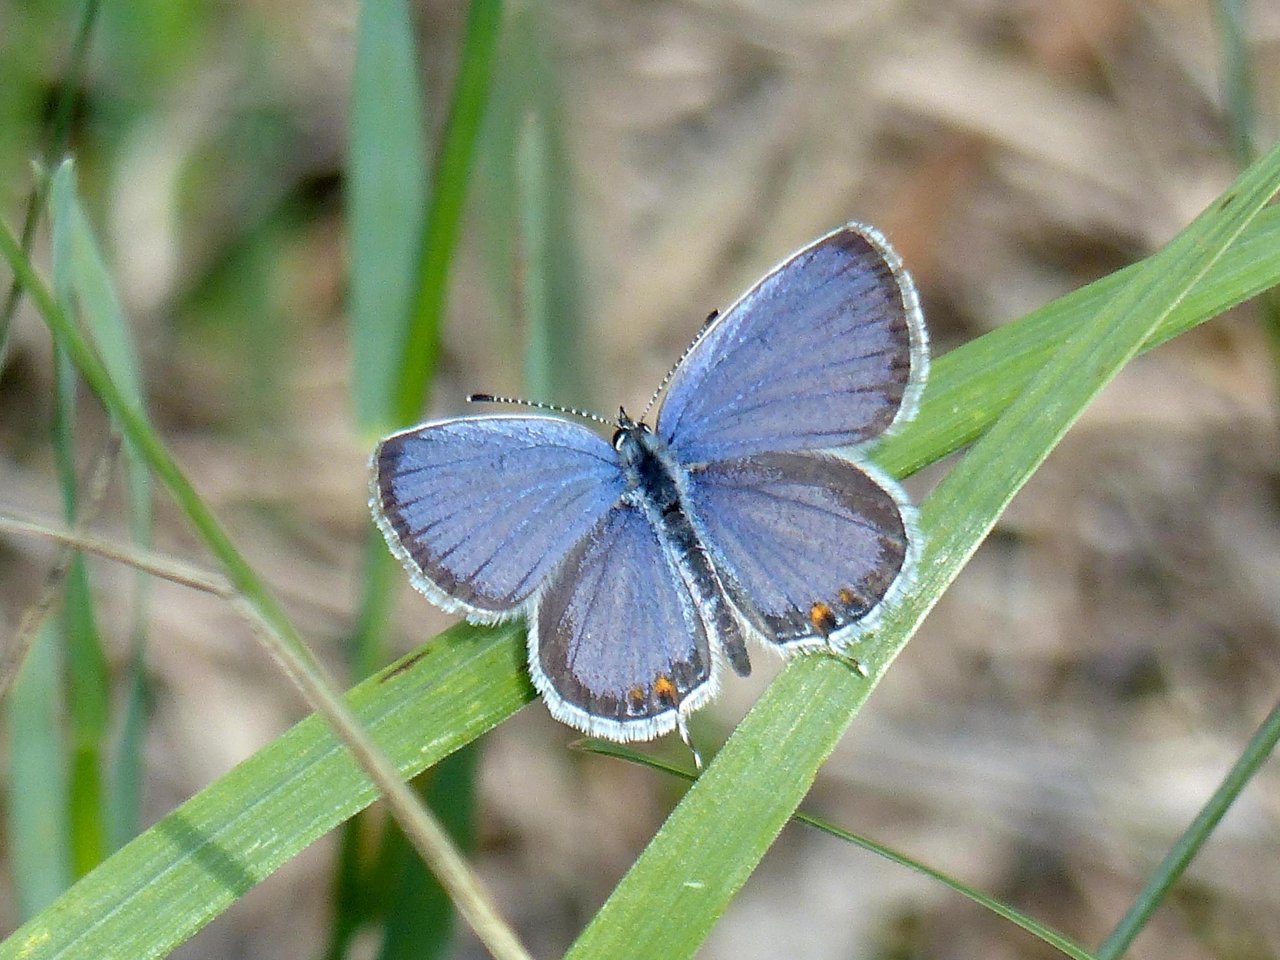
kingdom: Animalia
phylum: Arthropoda
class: Insecta
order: Lepidoptera
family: Lycaenidae
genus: Elkalyce
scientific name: Elkalyce comyntas
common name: Eastern Tailed-Blue
